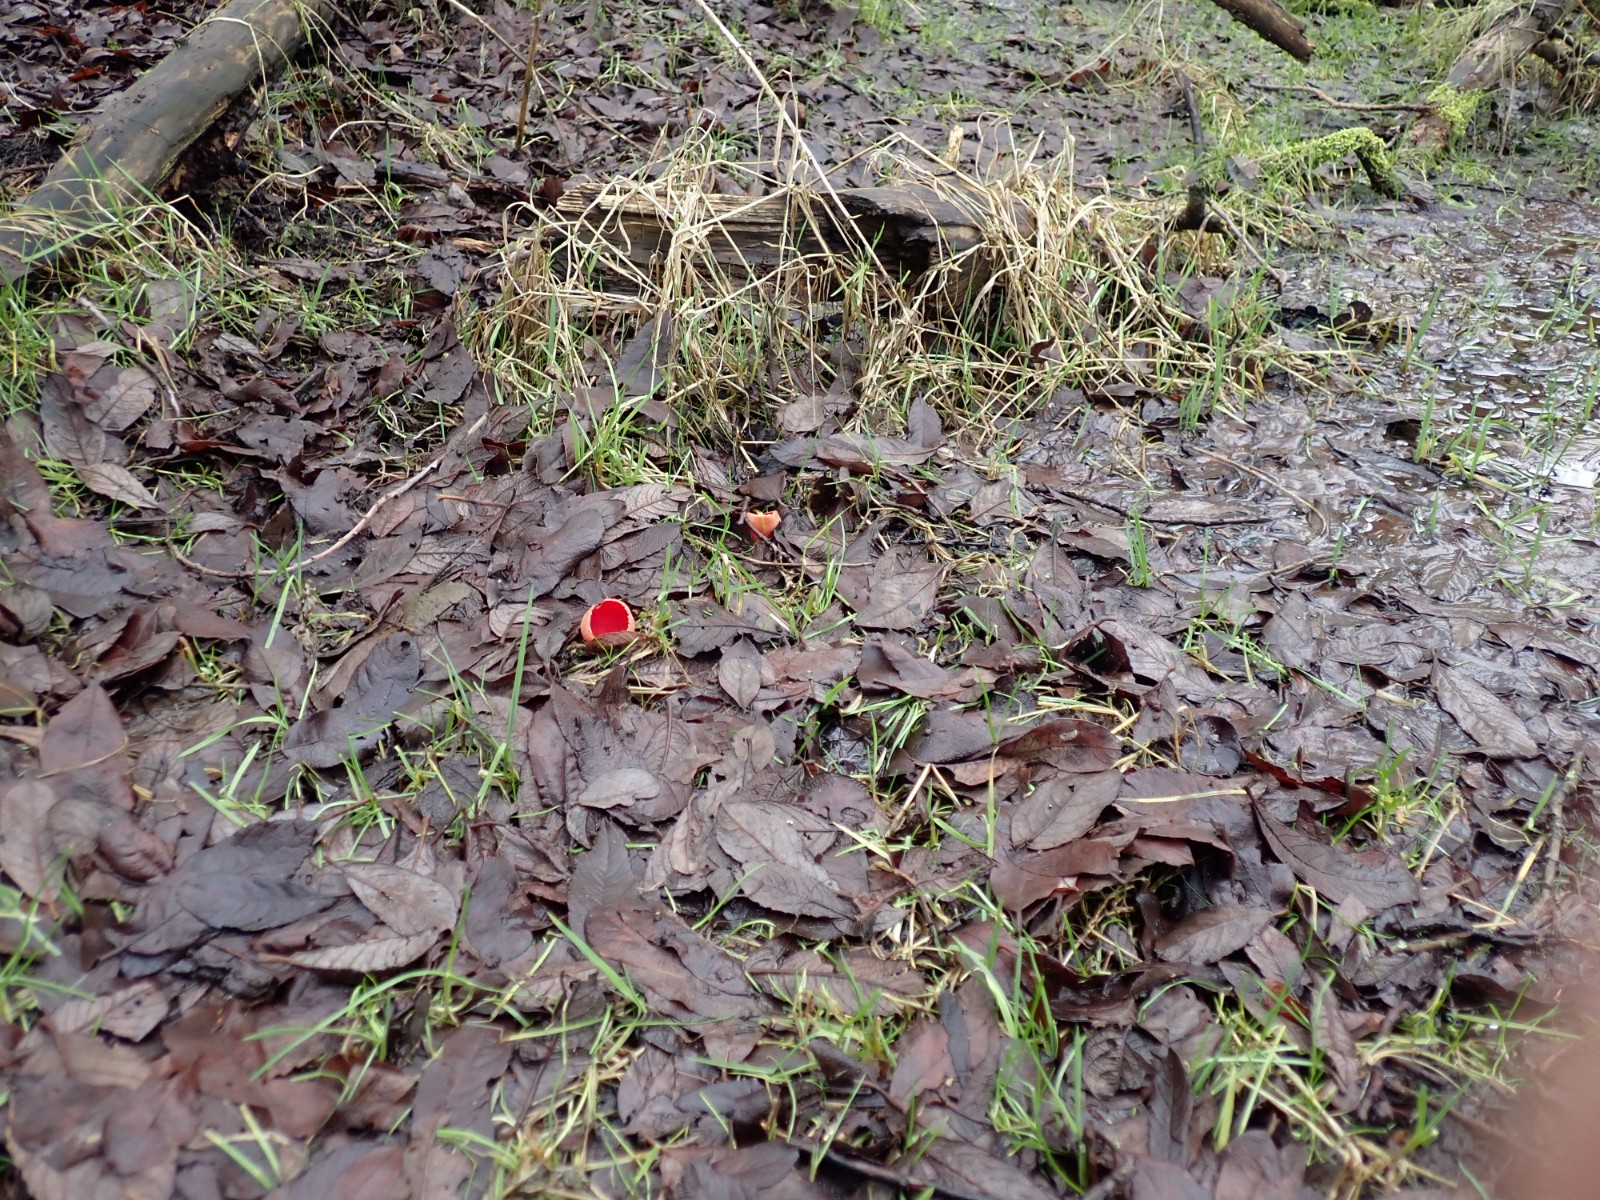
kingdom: Fungi
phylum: Ascomycota
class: Pezizomycetes
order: Pezizales
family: Sarcoscyphaceae
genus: Sarcoscypha
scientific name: Sarcoscypha austriaca
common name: krølhåret pragtbæger
